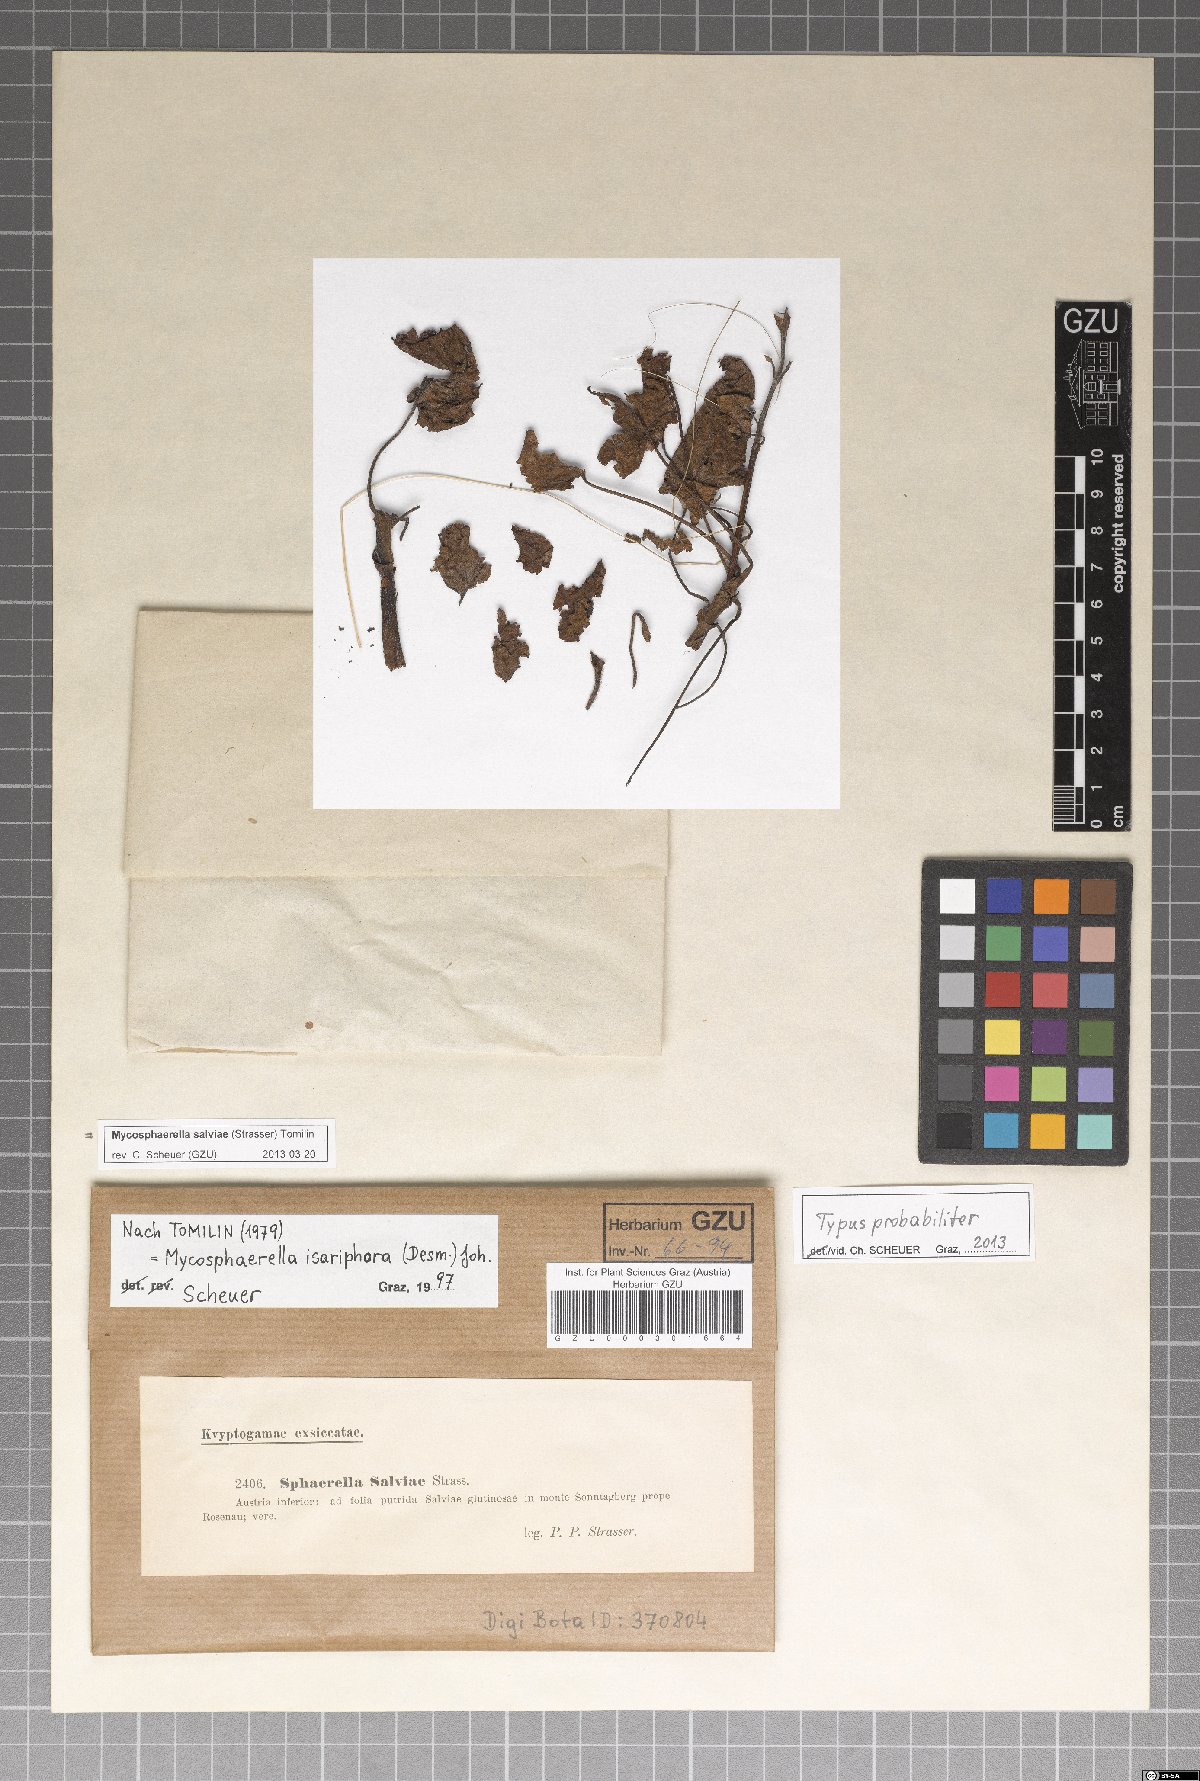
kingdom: Fungi
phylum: Ascomycota
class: Dothideomycetes
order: Mycosphaerellales
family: Mycosphaerellaceae
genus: Mycosphaerella
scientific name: Mycosphaerella salviae
